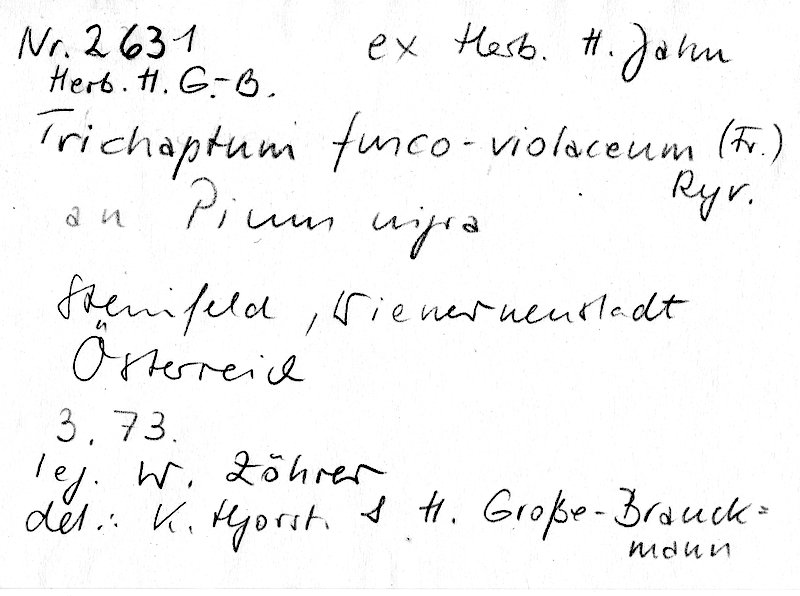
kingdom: Fungi
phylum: Basidiomycota
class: Agaricomycetes
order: Hymenochaetales
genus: Trichaptum
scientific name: Trichaptum fuscoviolaceum
